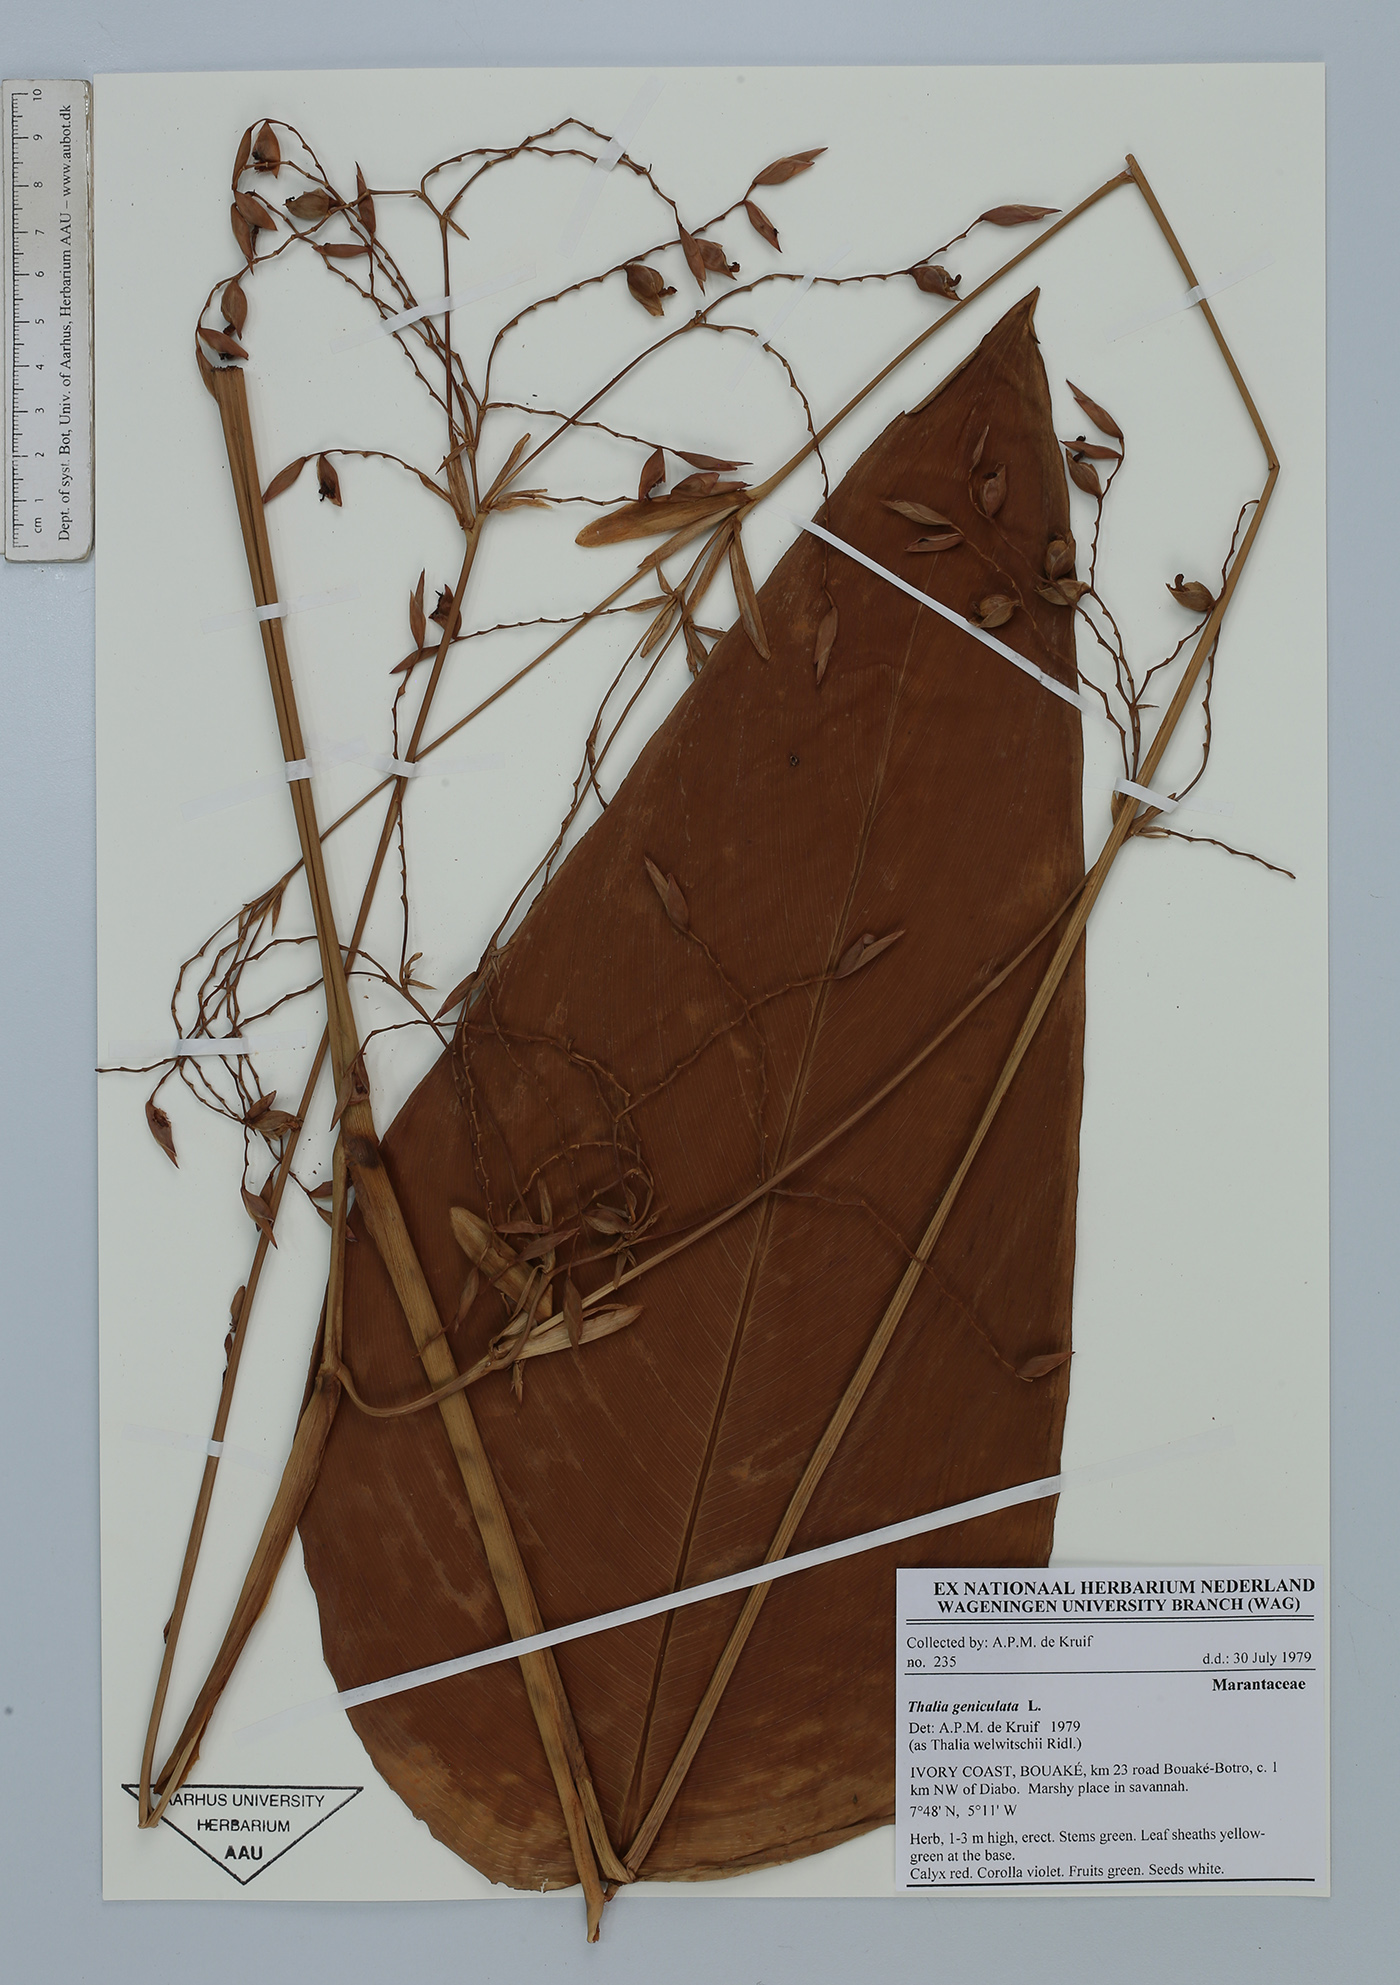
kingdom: Plantae
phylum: Tracheophyta
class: Liliopsida
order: Zingiberales
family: Marantaceae
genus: Thalia
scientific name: Thalia geniculata
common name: Arrowroot
